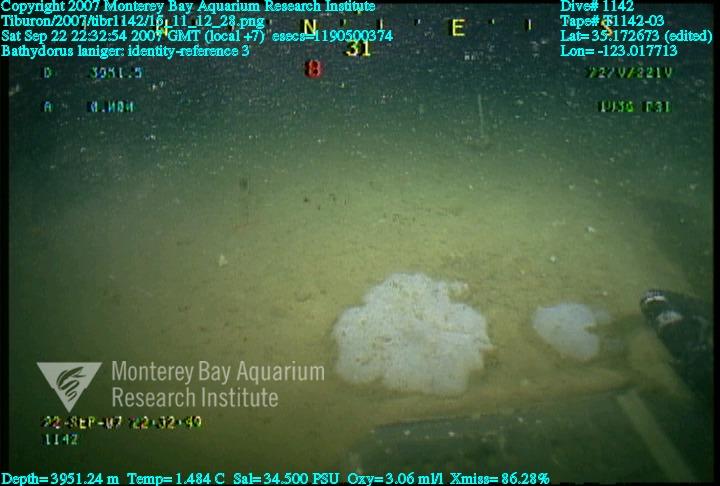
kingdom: Animalia
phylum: Porifera
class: Hexactinellida
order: Lyssacinosida
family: Rossellidae
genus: Bathydorus
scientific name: Bathydorus laniger
